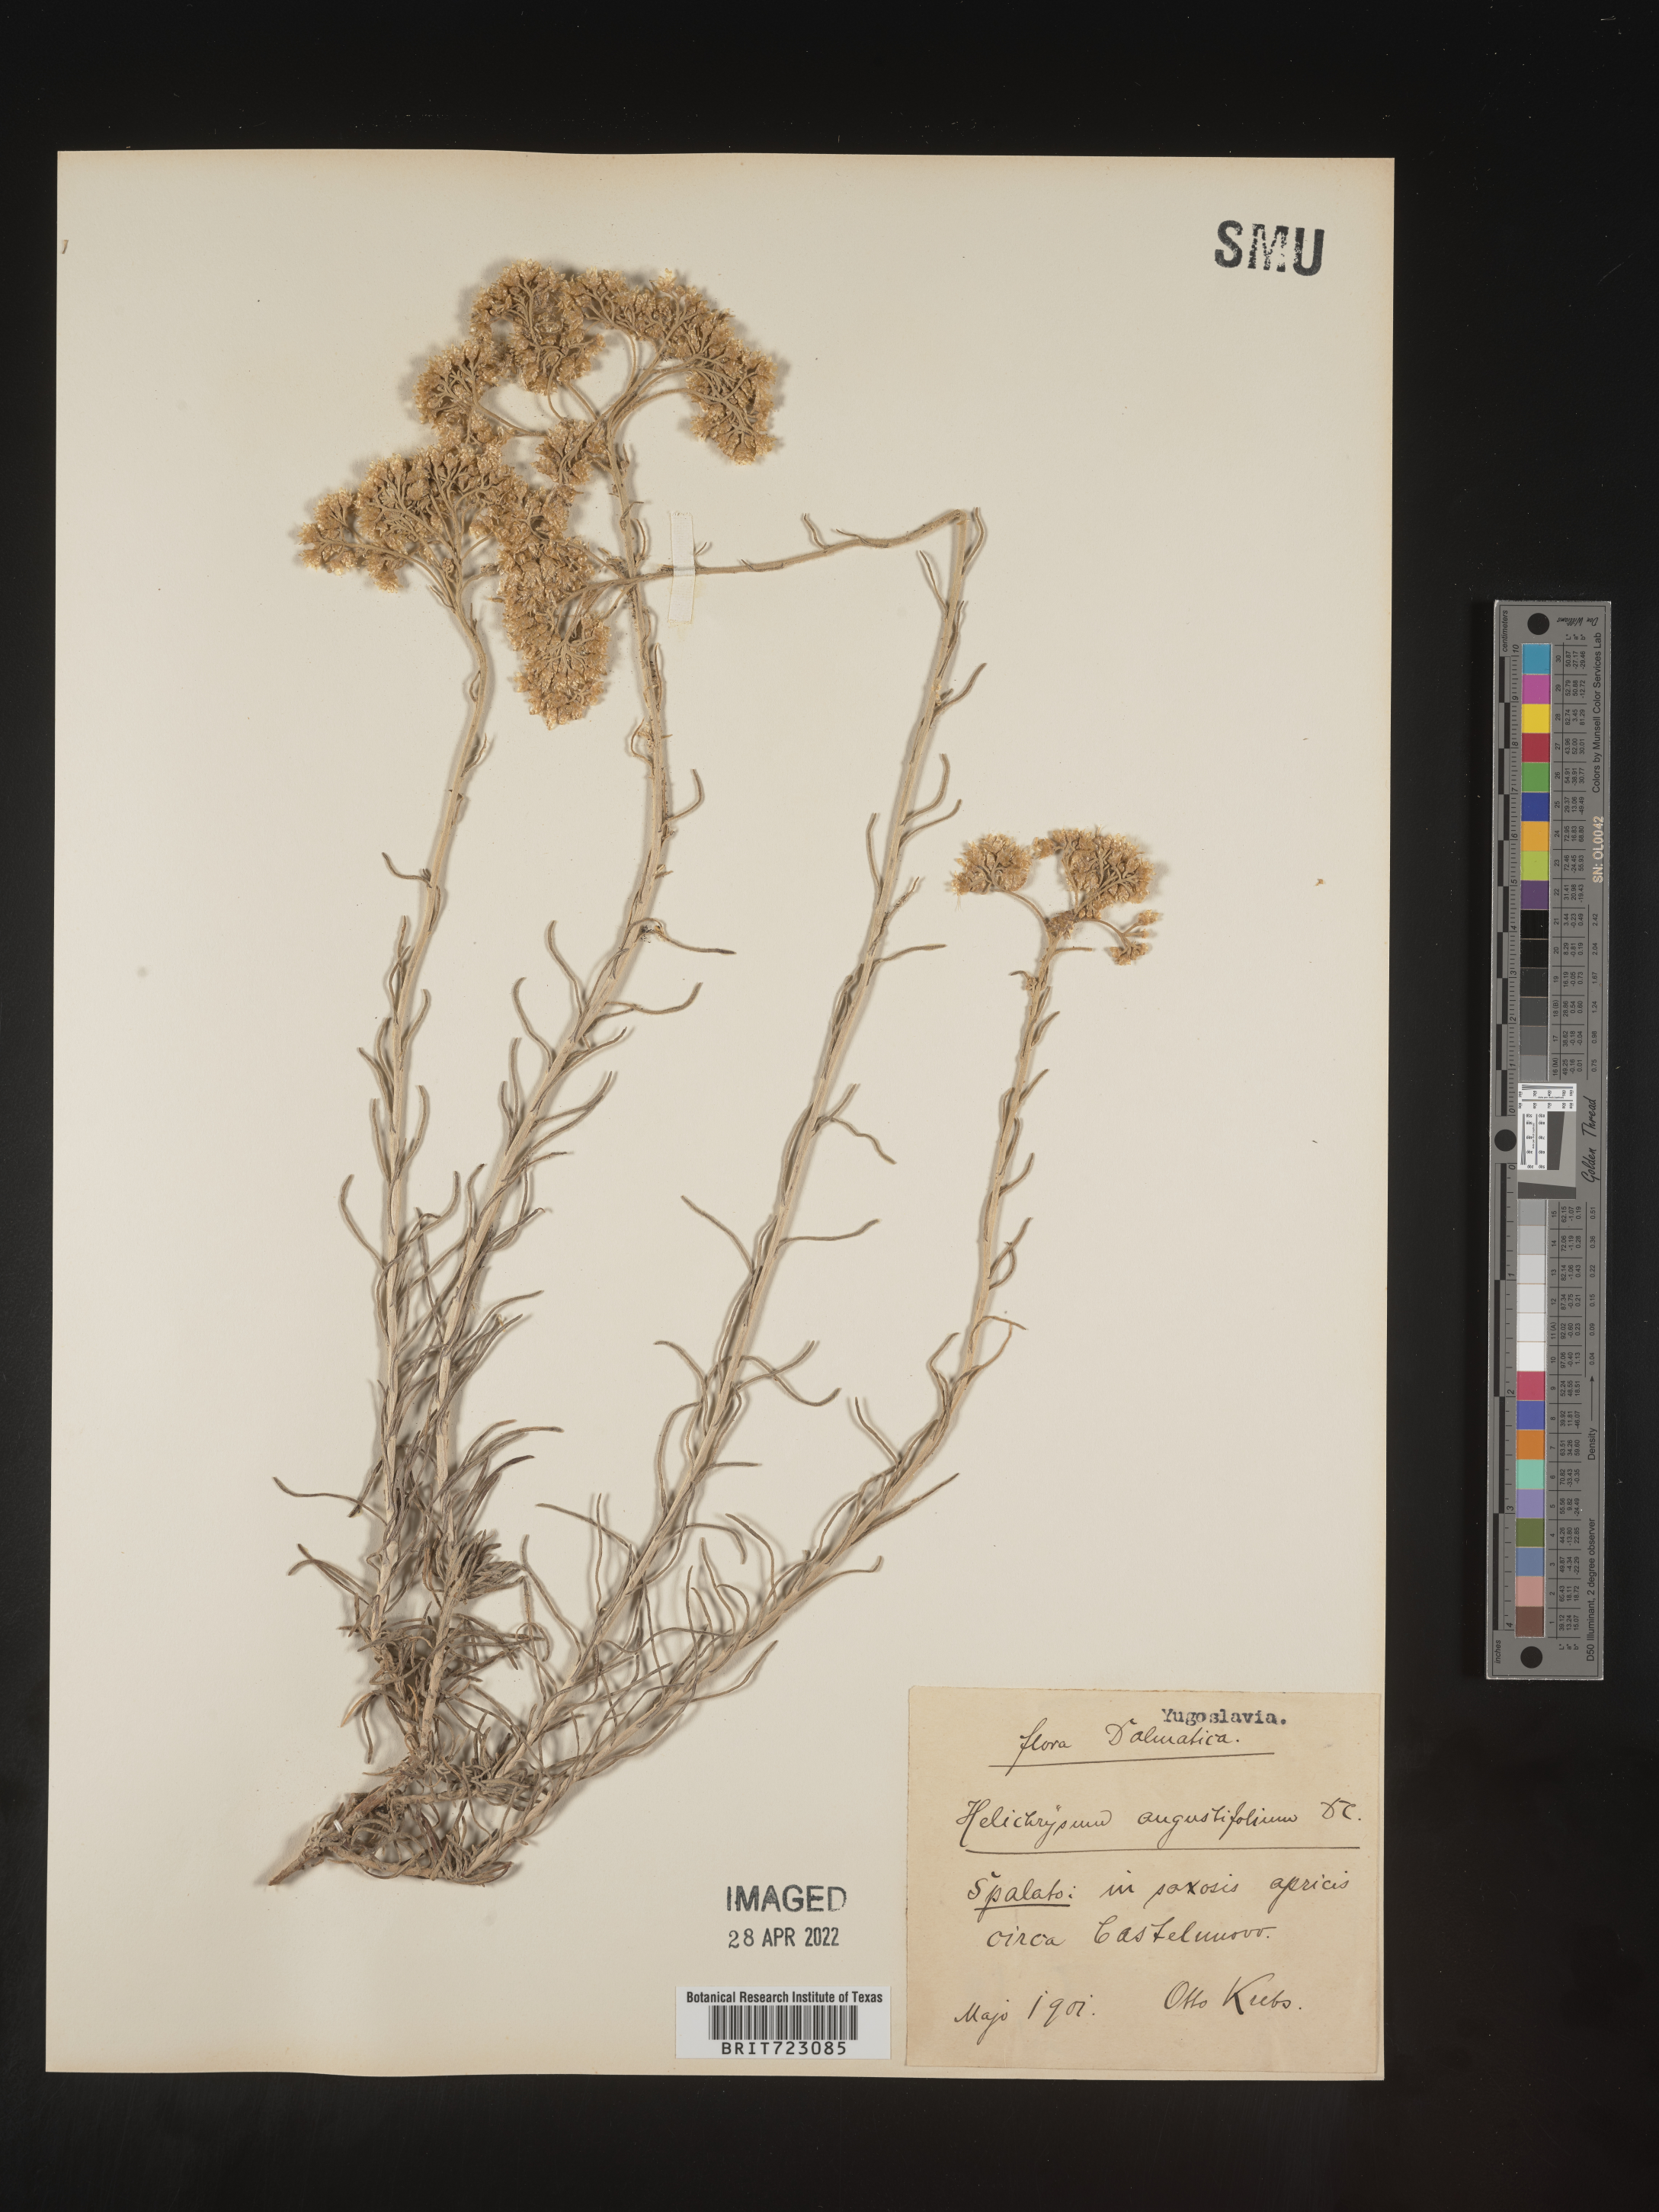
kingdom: Plantae
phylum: Tracheophyta
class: Magnoliopsida
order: Asterales
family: Asteraceae
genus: Helichrysum
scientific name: Helichrysum
